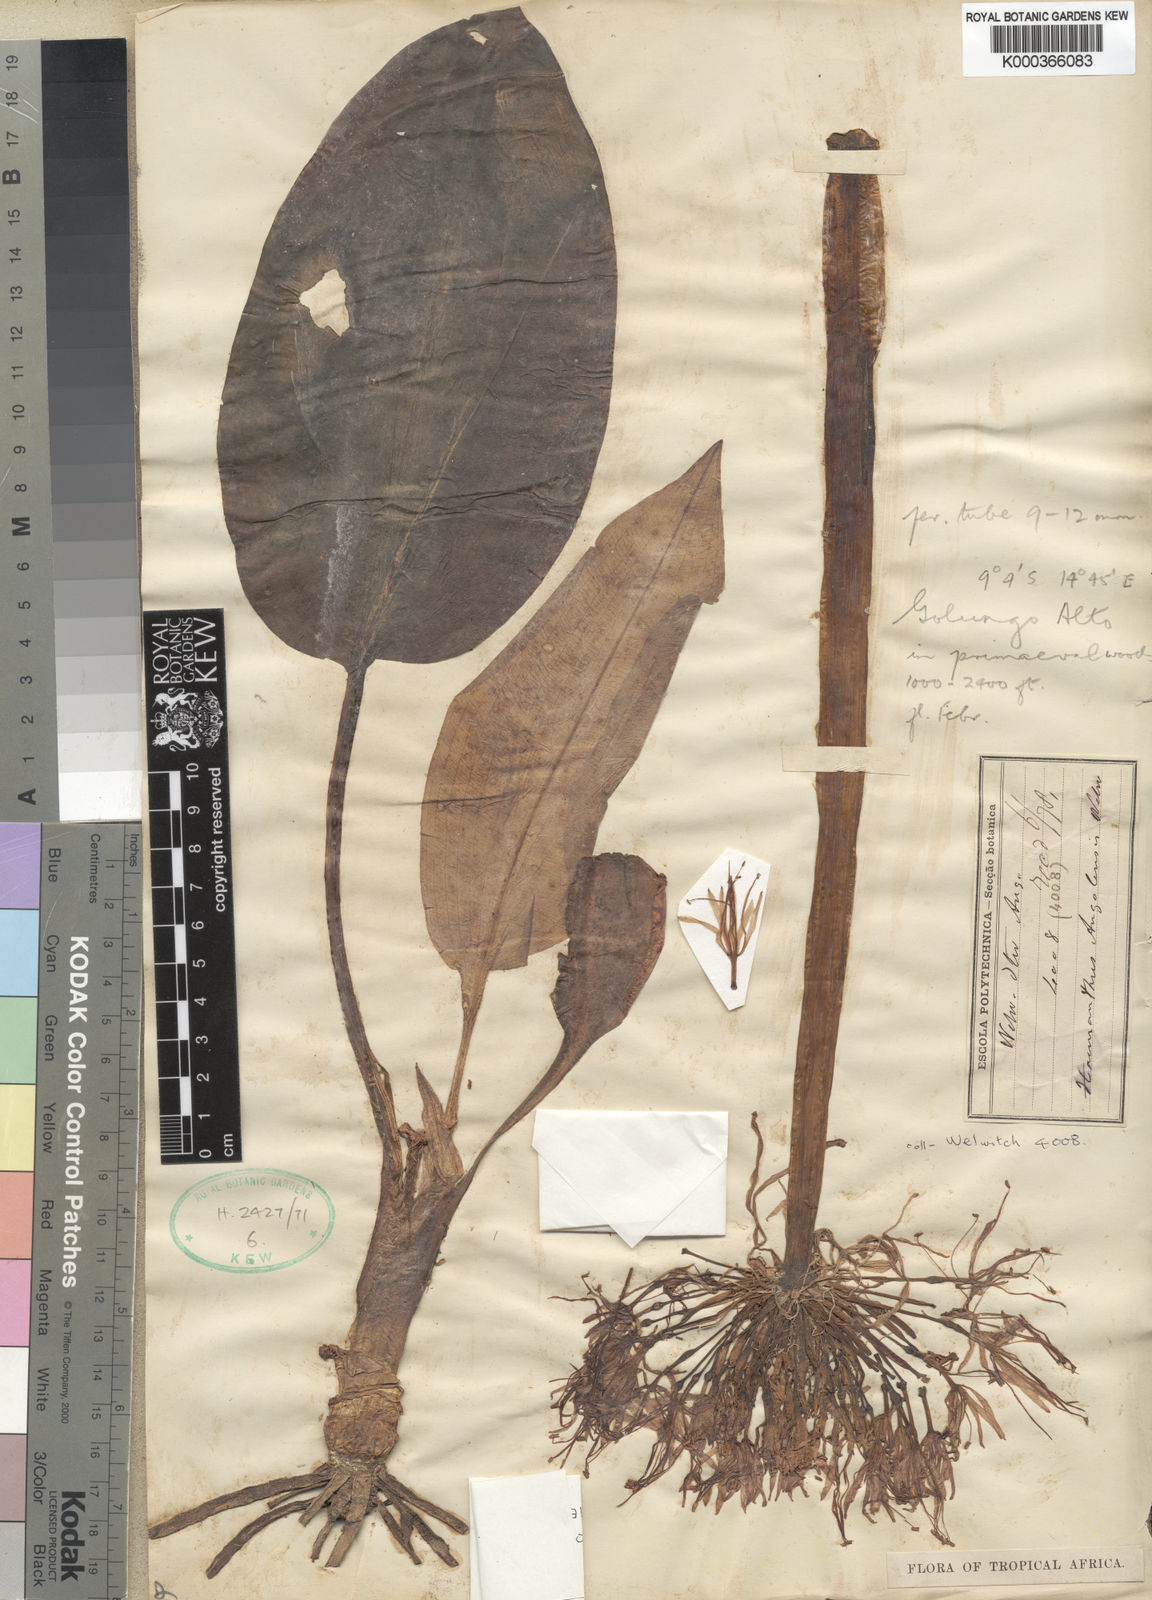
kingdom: Plantae
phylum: Tracheophyta
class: Liliopsida
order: Asparagales
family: Amaryllidaceae
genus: Scadoxus
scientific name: Scadoxus cinnabarinus
